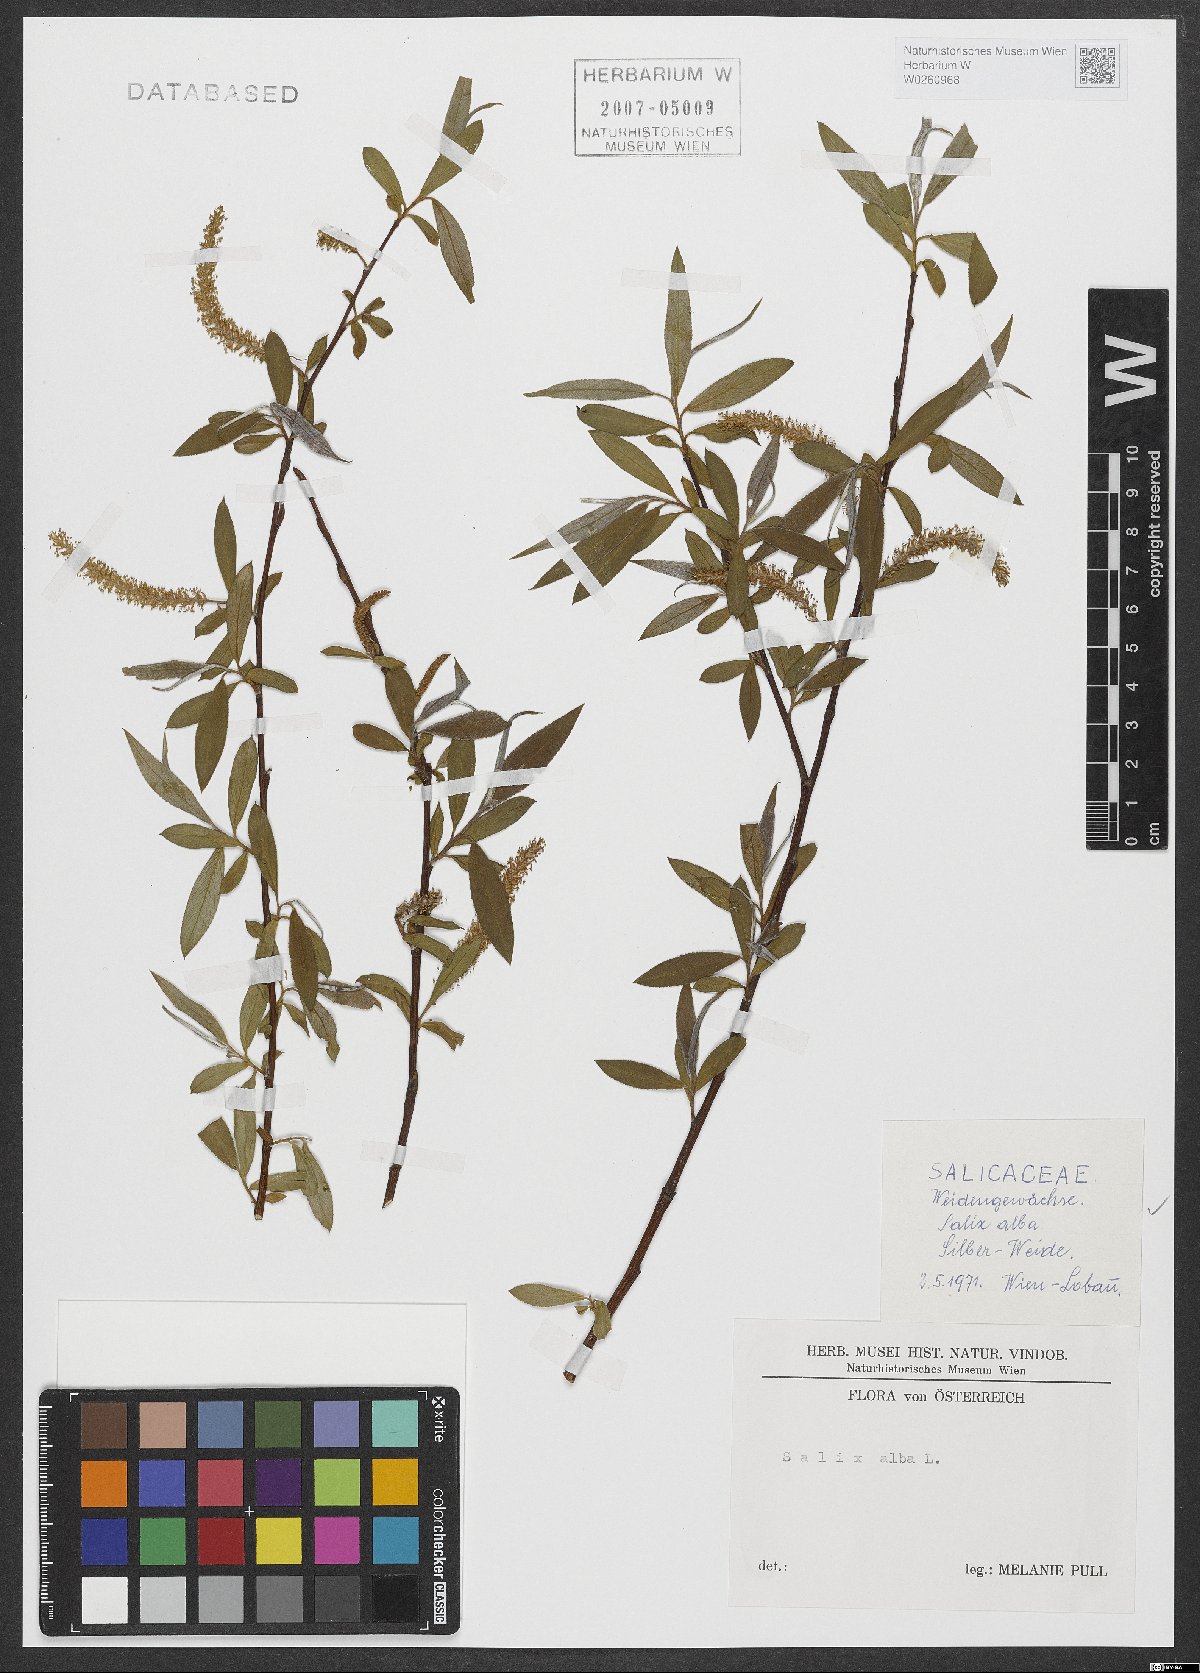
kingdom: Plantae
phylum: Tracheophyta
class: Magnoliopsida
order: Malpighiales
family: Salicaceae
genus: Salix
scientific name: Salix alba
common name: White willow
